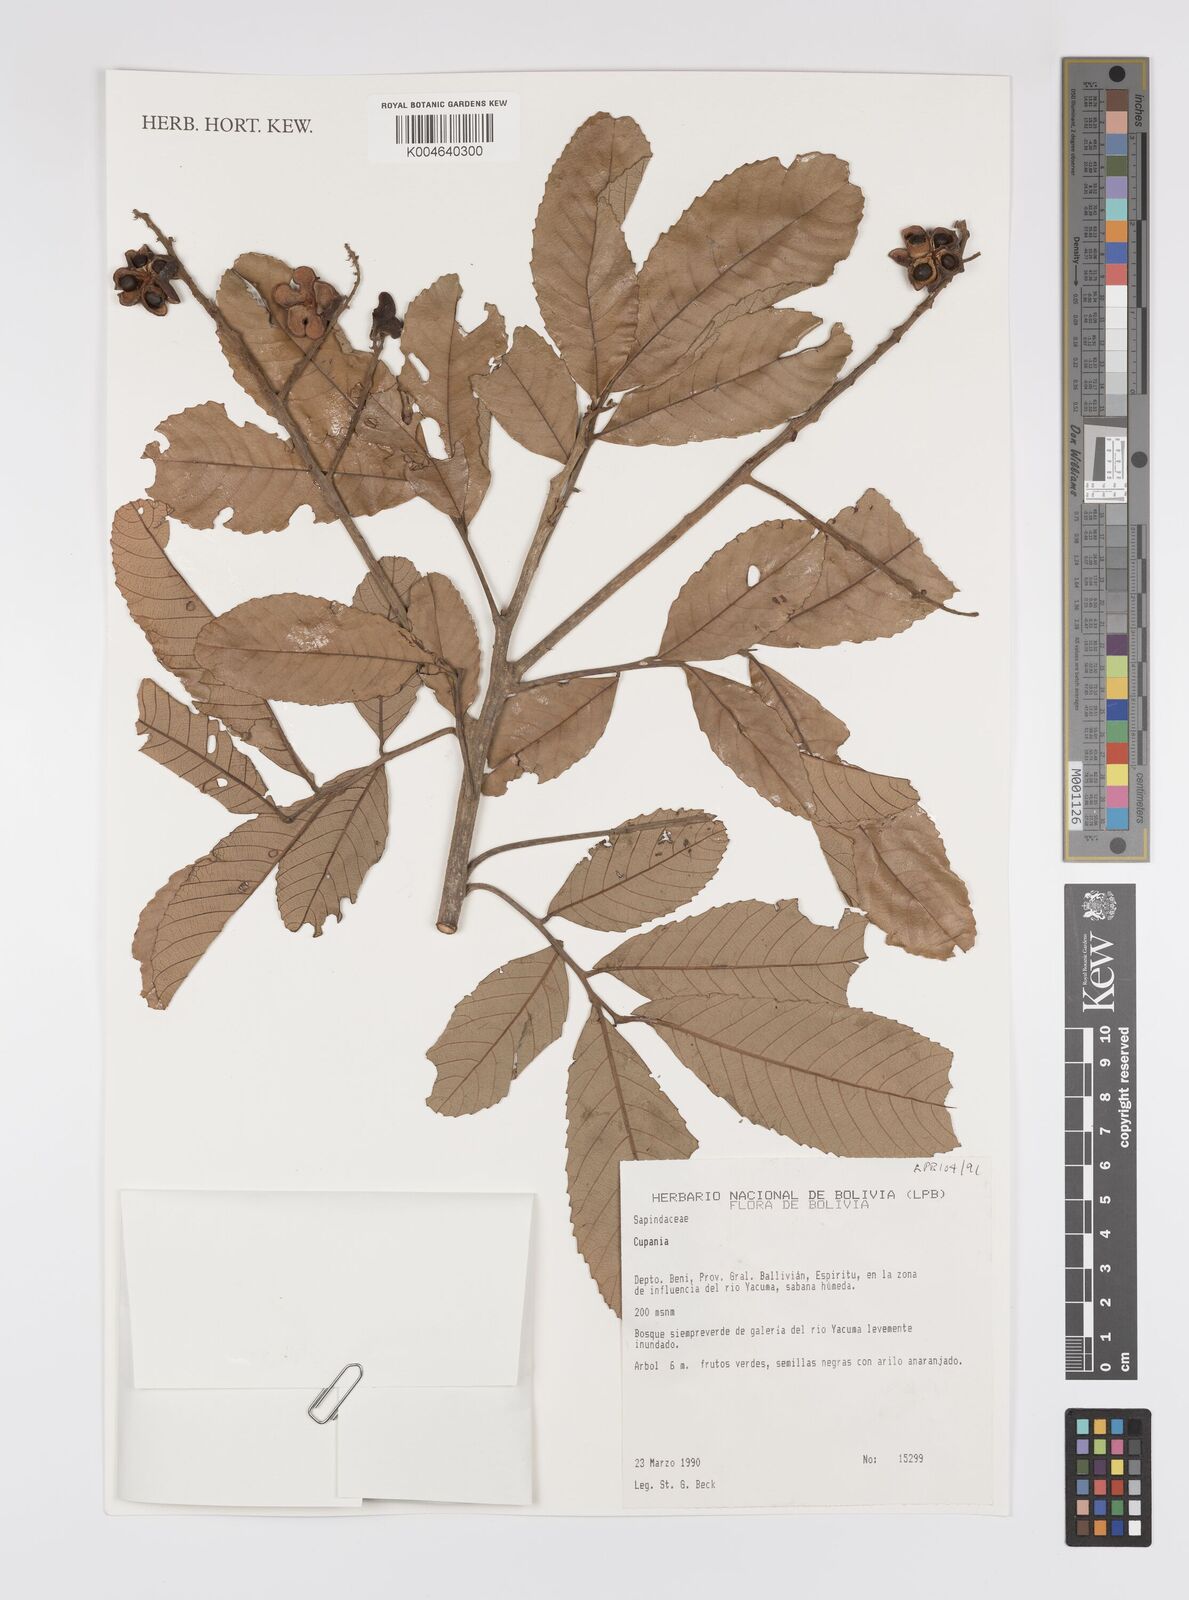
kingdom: Plantae
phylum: Tracheophyta
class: Magnoliopsida
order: Sapindales
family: Sapindaceae
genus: Cupania
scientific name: Cupania
